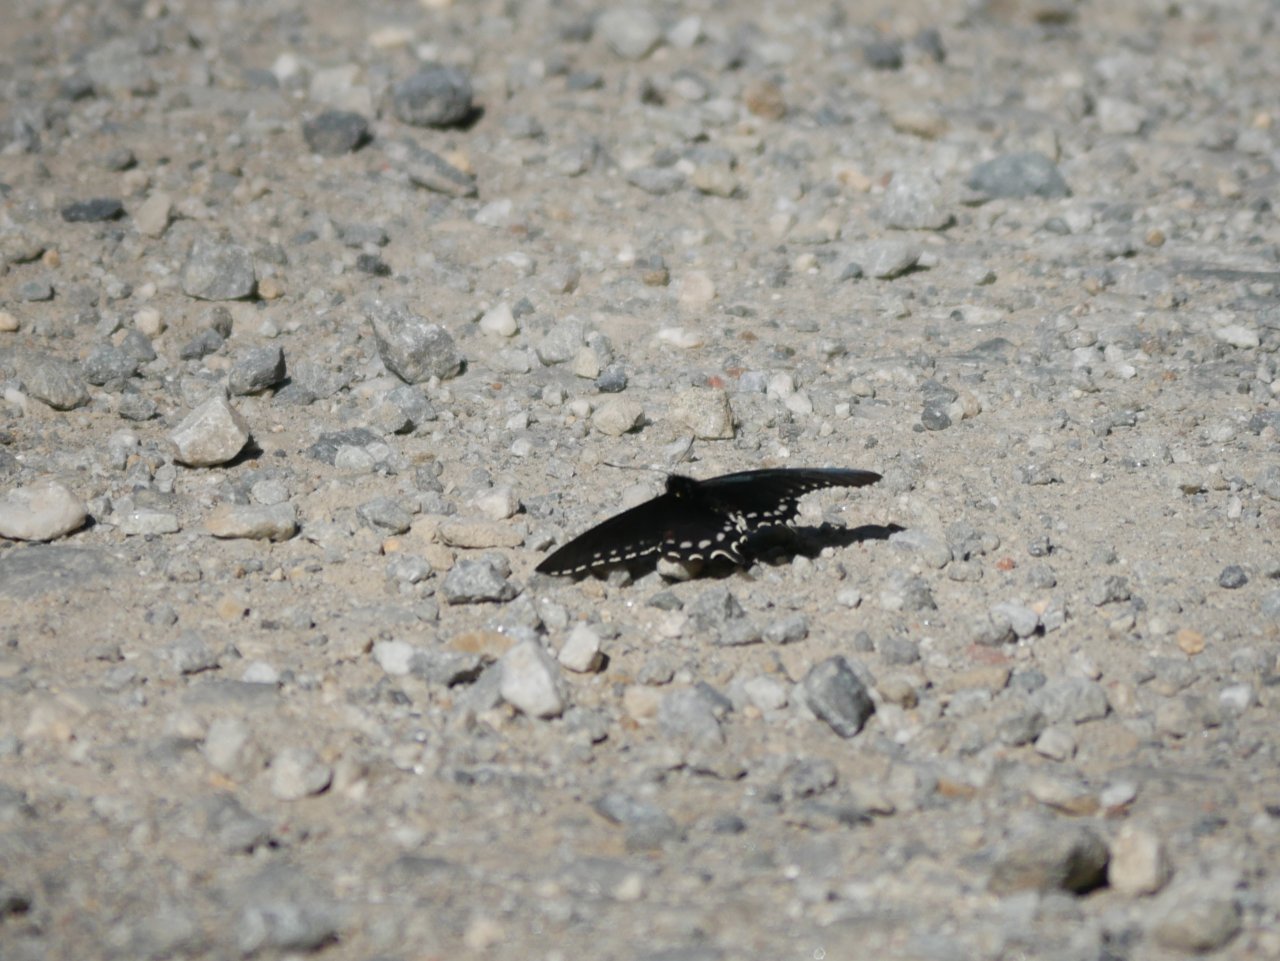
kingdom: Animalia
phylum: Arthropoda
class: Insecta
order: Lepidoptera
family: Papilionidae
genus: Battus
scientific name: Battus philenor
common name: Pipevine Swallowtail
